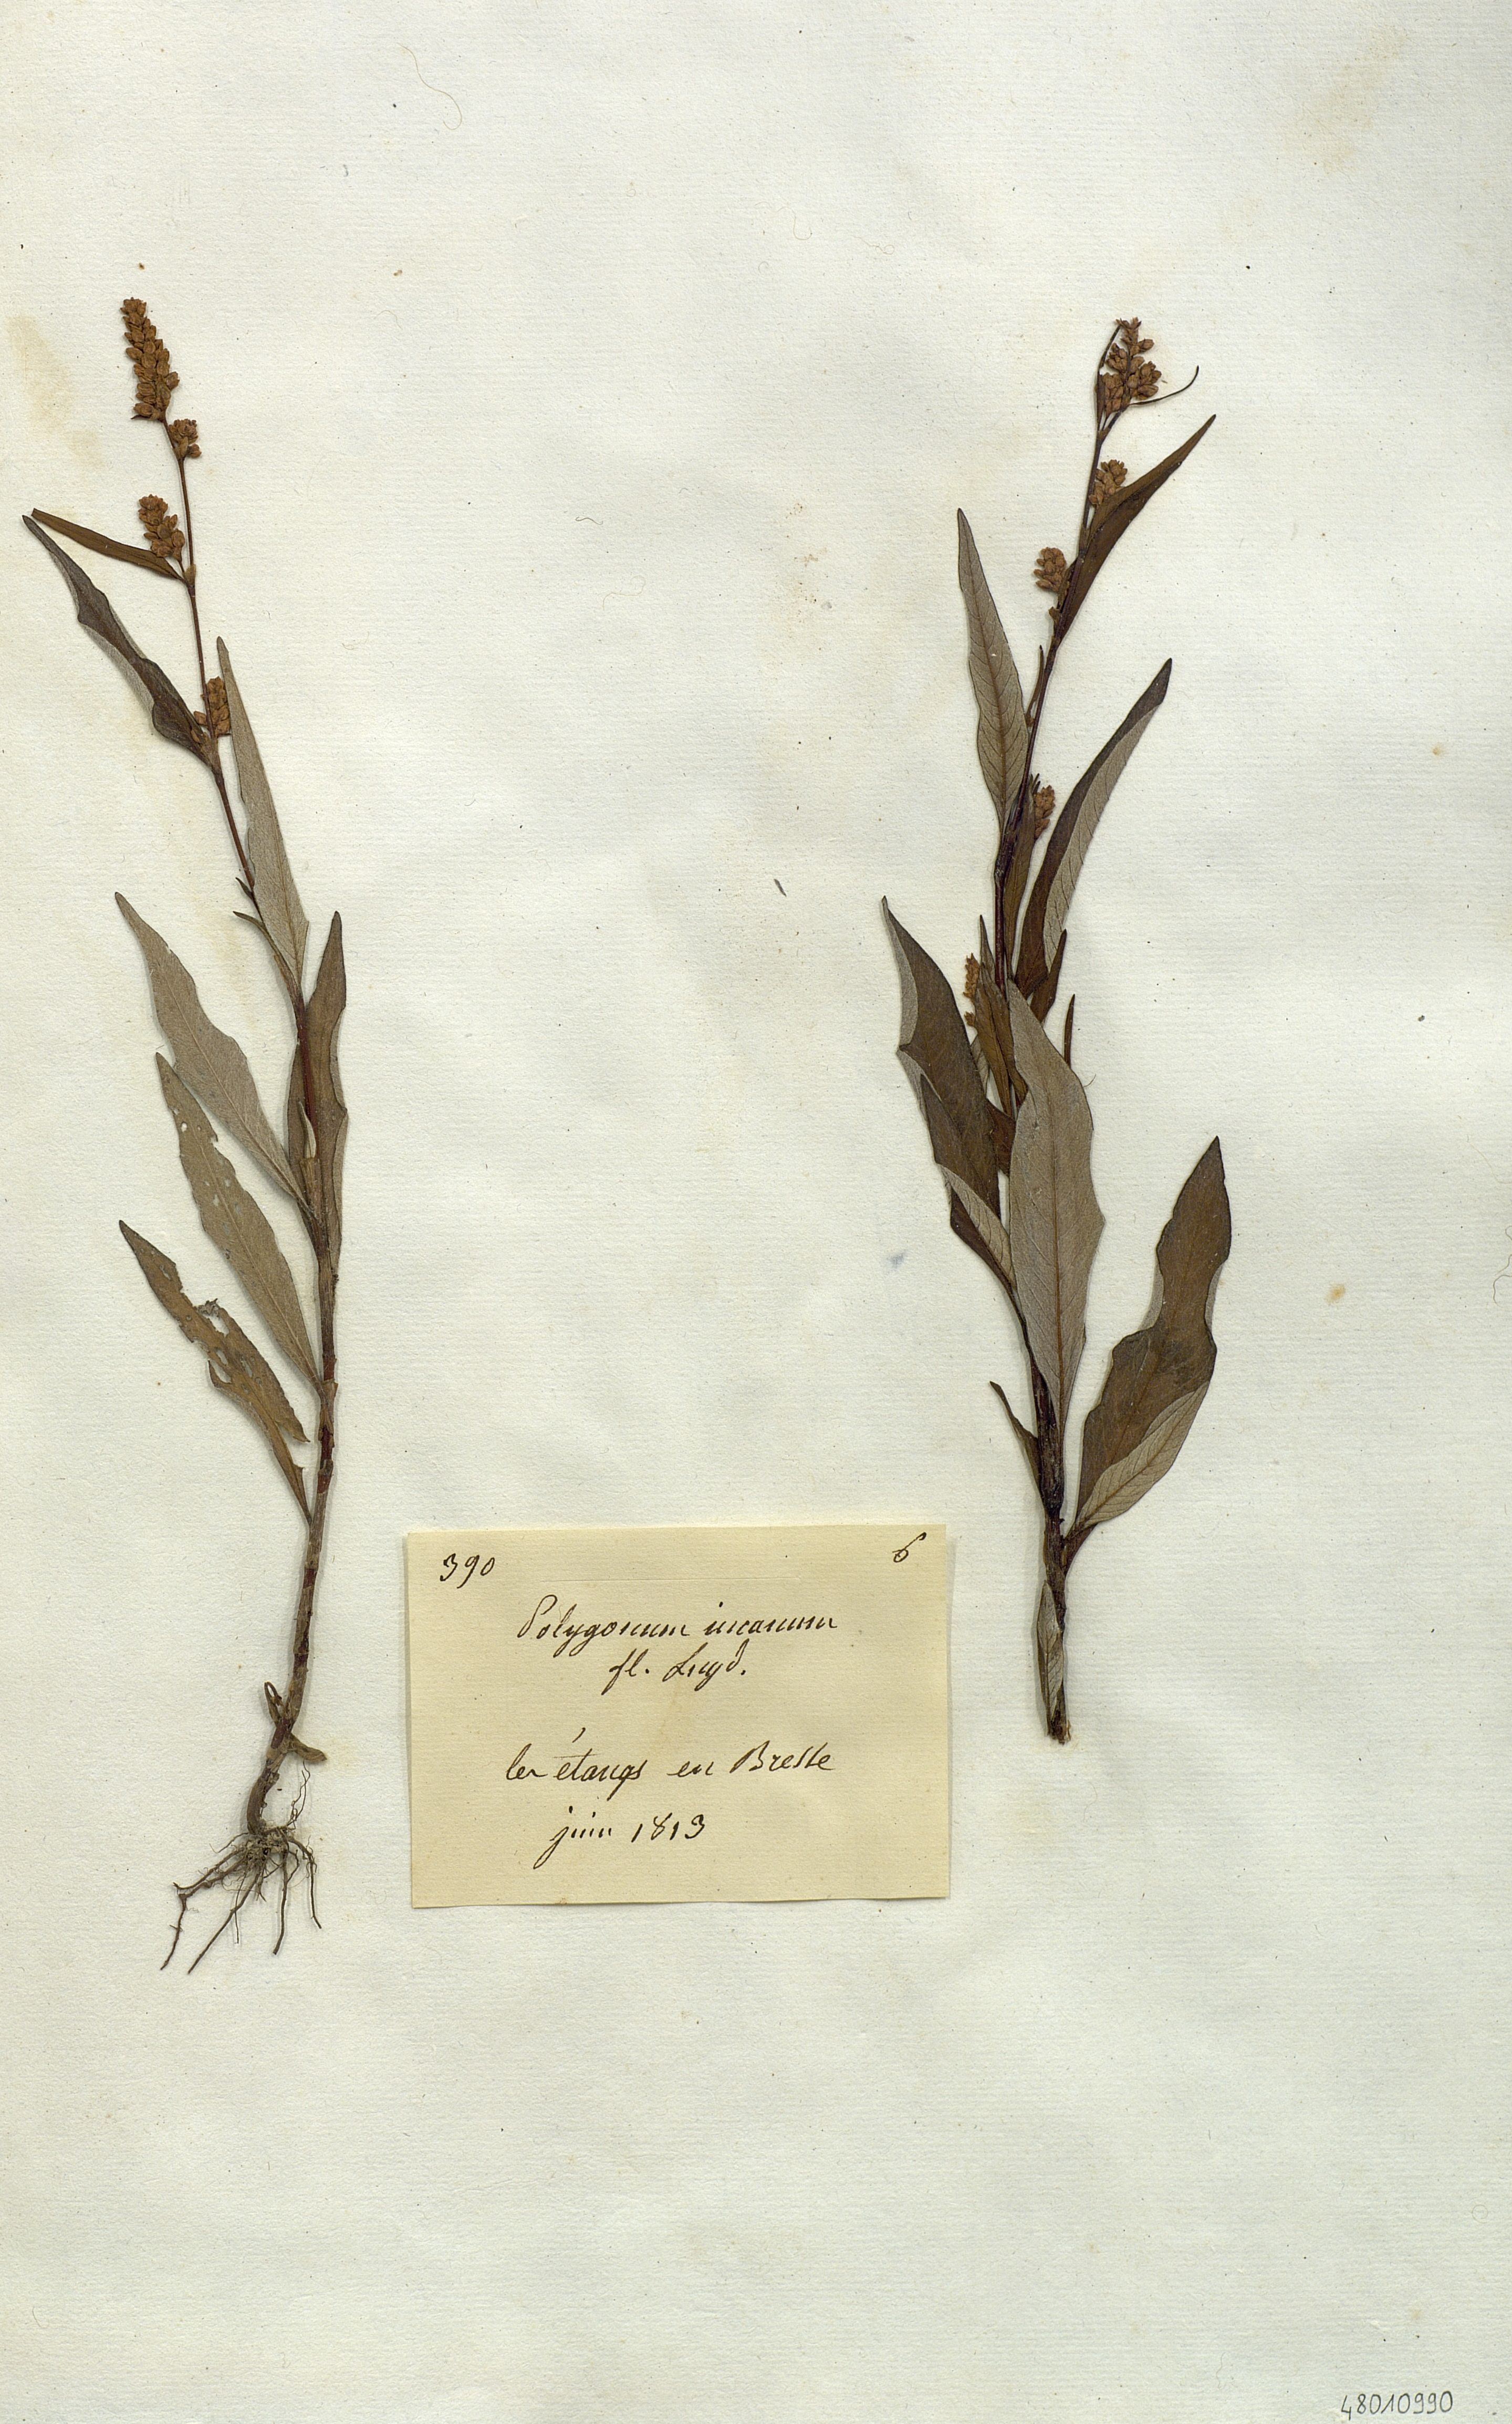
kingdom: Plantae
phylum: Tracheophyta
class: Magnoliopsida
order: Caryophyllales
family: Polygonaceae
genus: Polygonum
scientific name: Polygonum incanum
